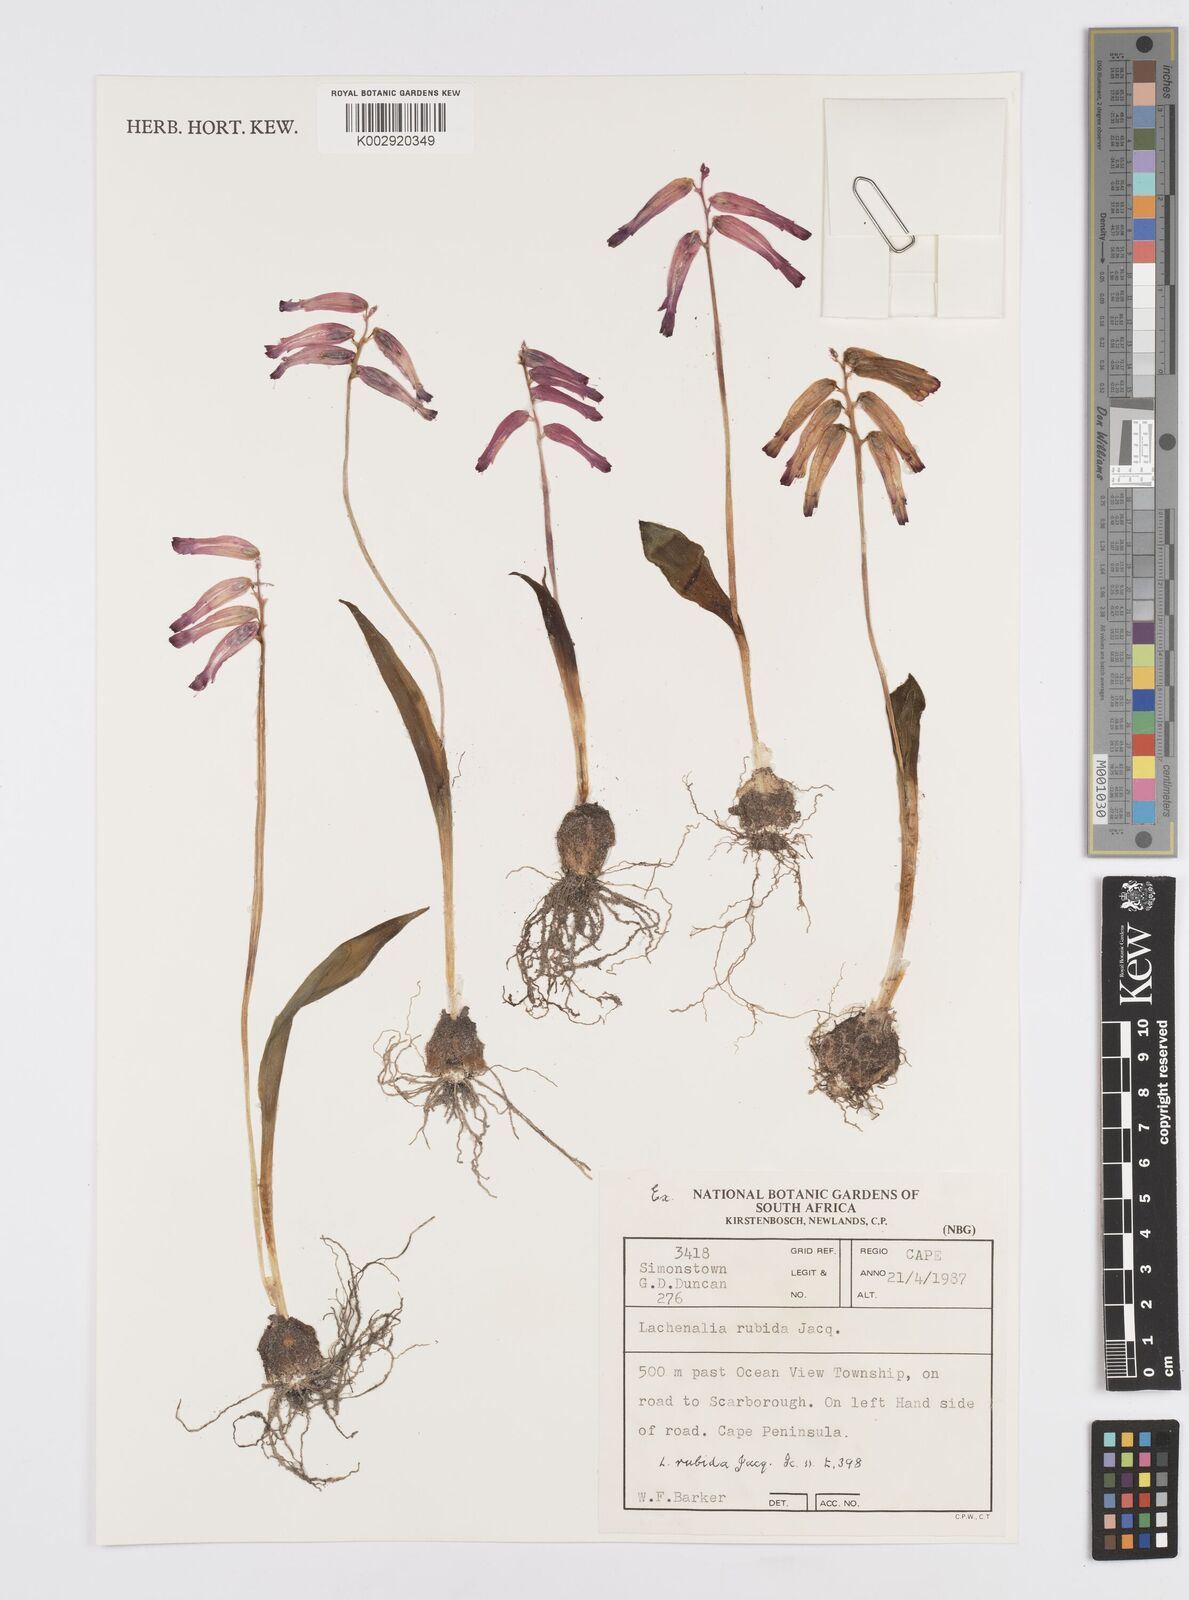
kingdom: Plantae
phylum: Tracheophyta
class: Liliopsida
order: Asparagales
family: Asparagaceae
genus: Lachenalia
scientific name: Lachenalia punctata
